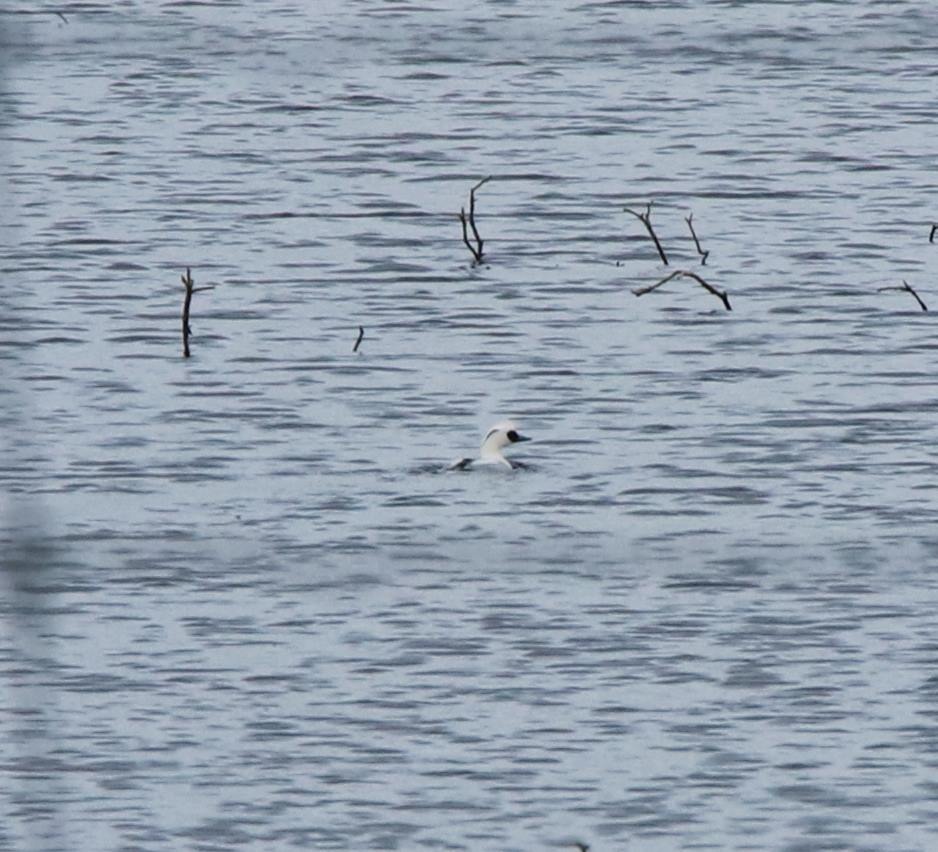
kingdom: Animalia
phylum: Chordata
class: Aves
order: Anseriformes
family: Anatidae
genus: Mergellus
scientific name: Mergellus albellus
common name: Lille skallesluger
